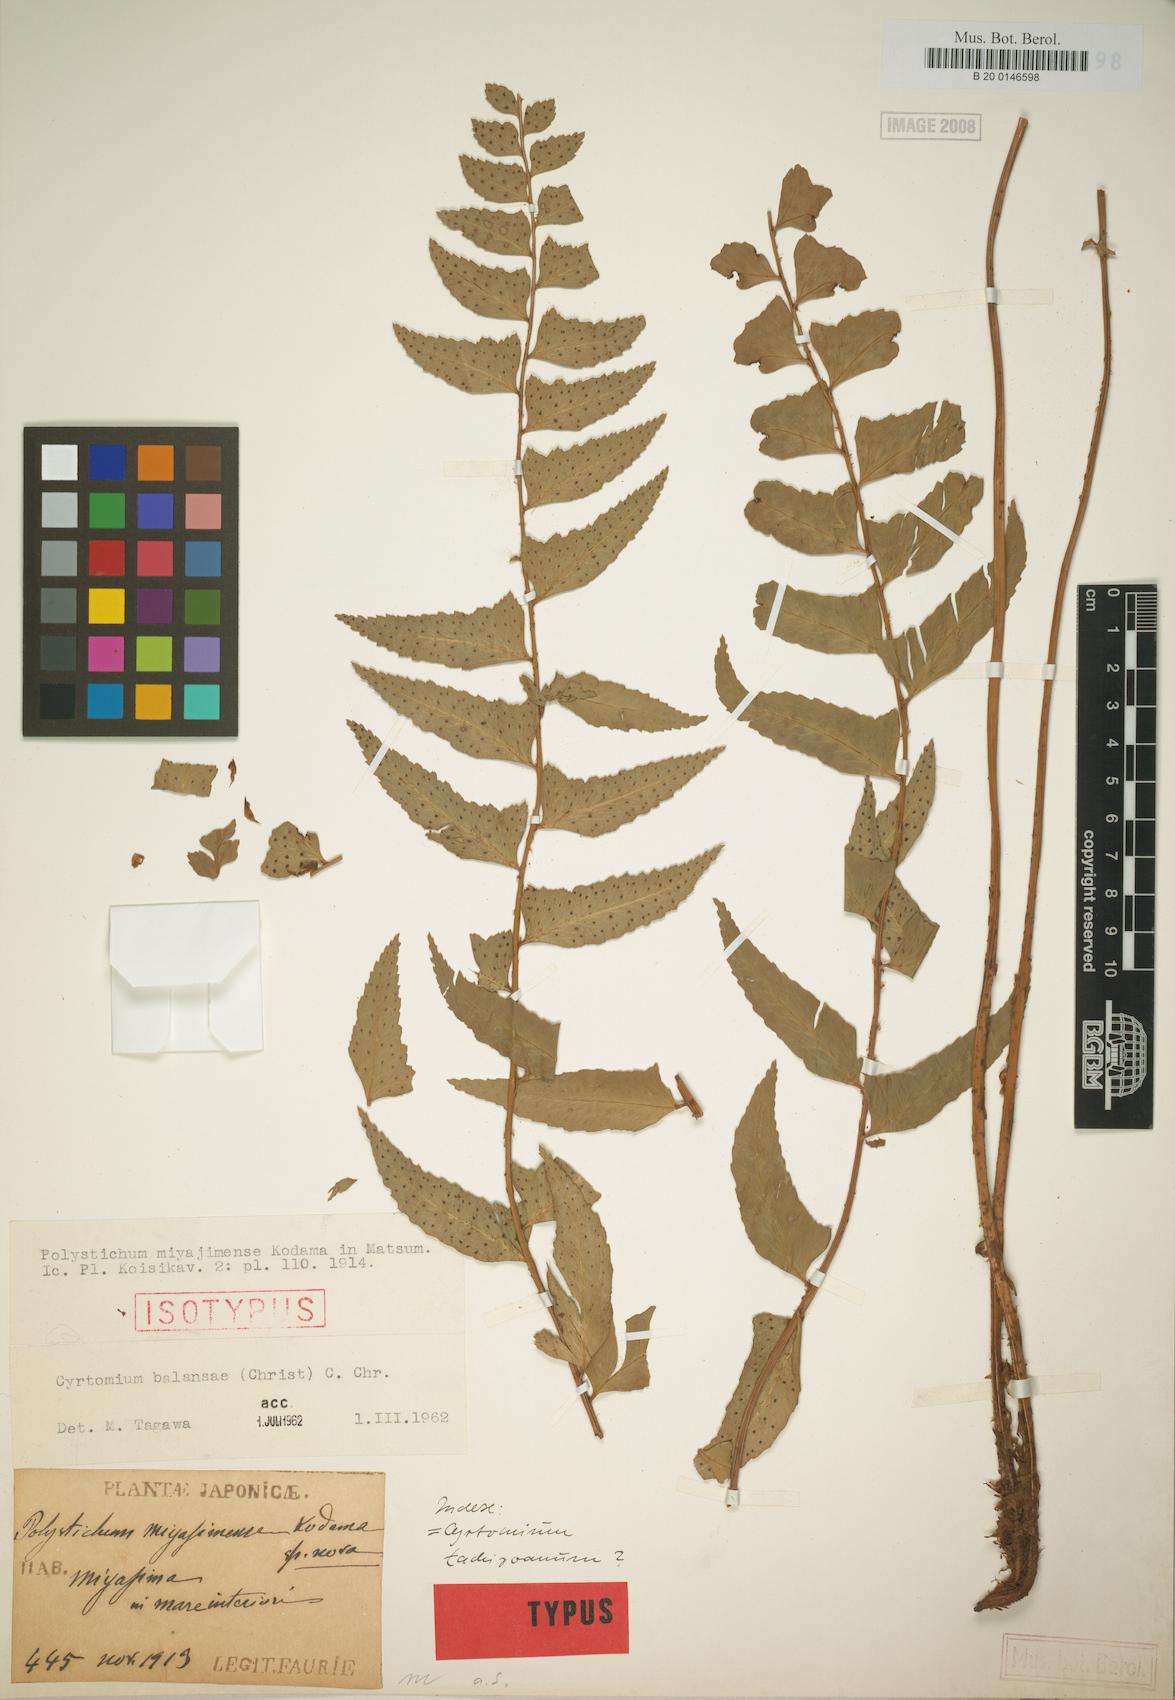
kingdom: Plantae
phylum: Tracheophyta
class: Polypodiopsida
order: Polypodiales
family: Dryopteridaceae
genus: Polystichum
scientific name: Polystichum balansae
